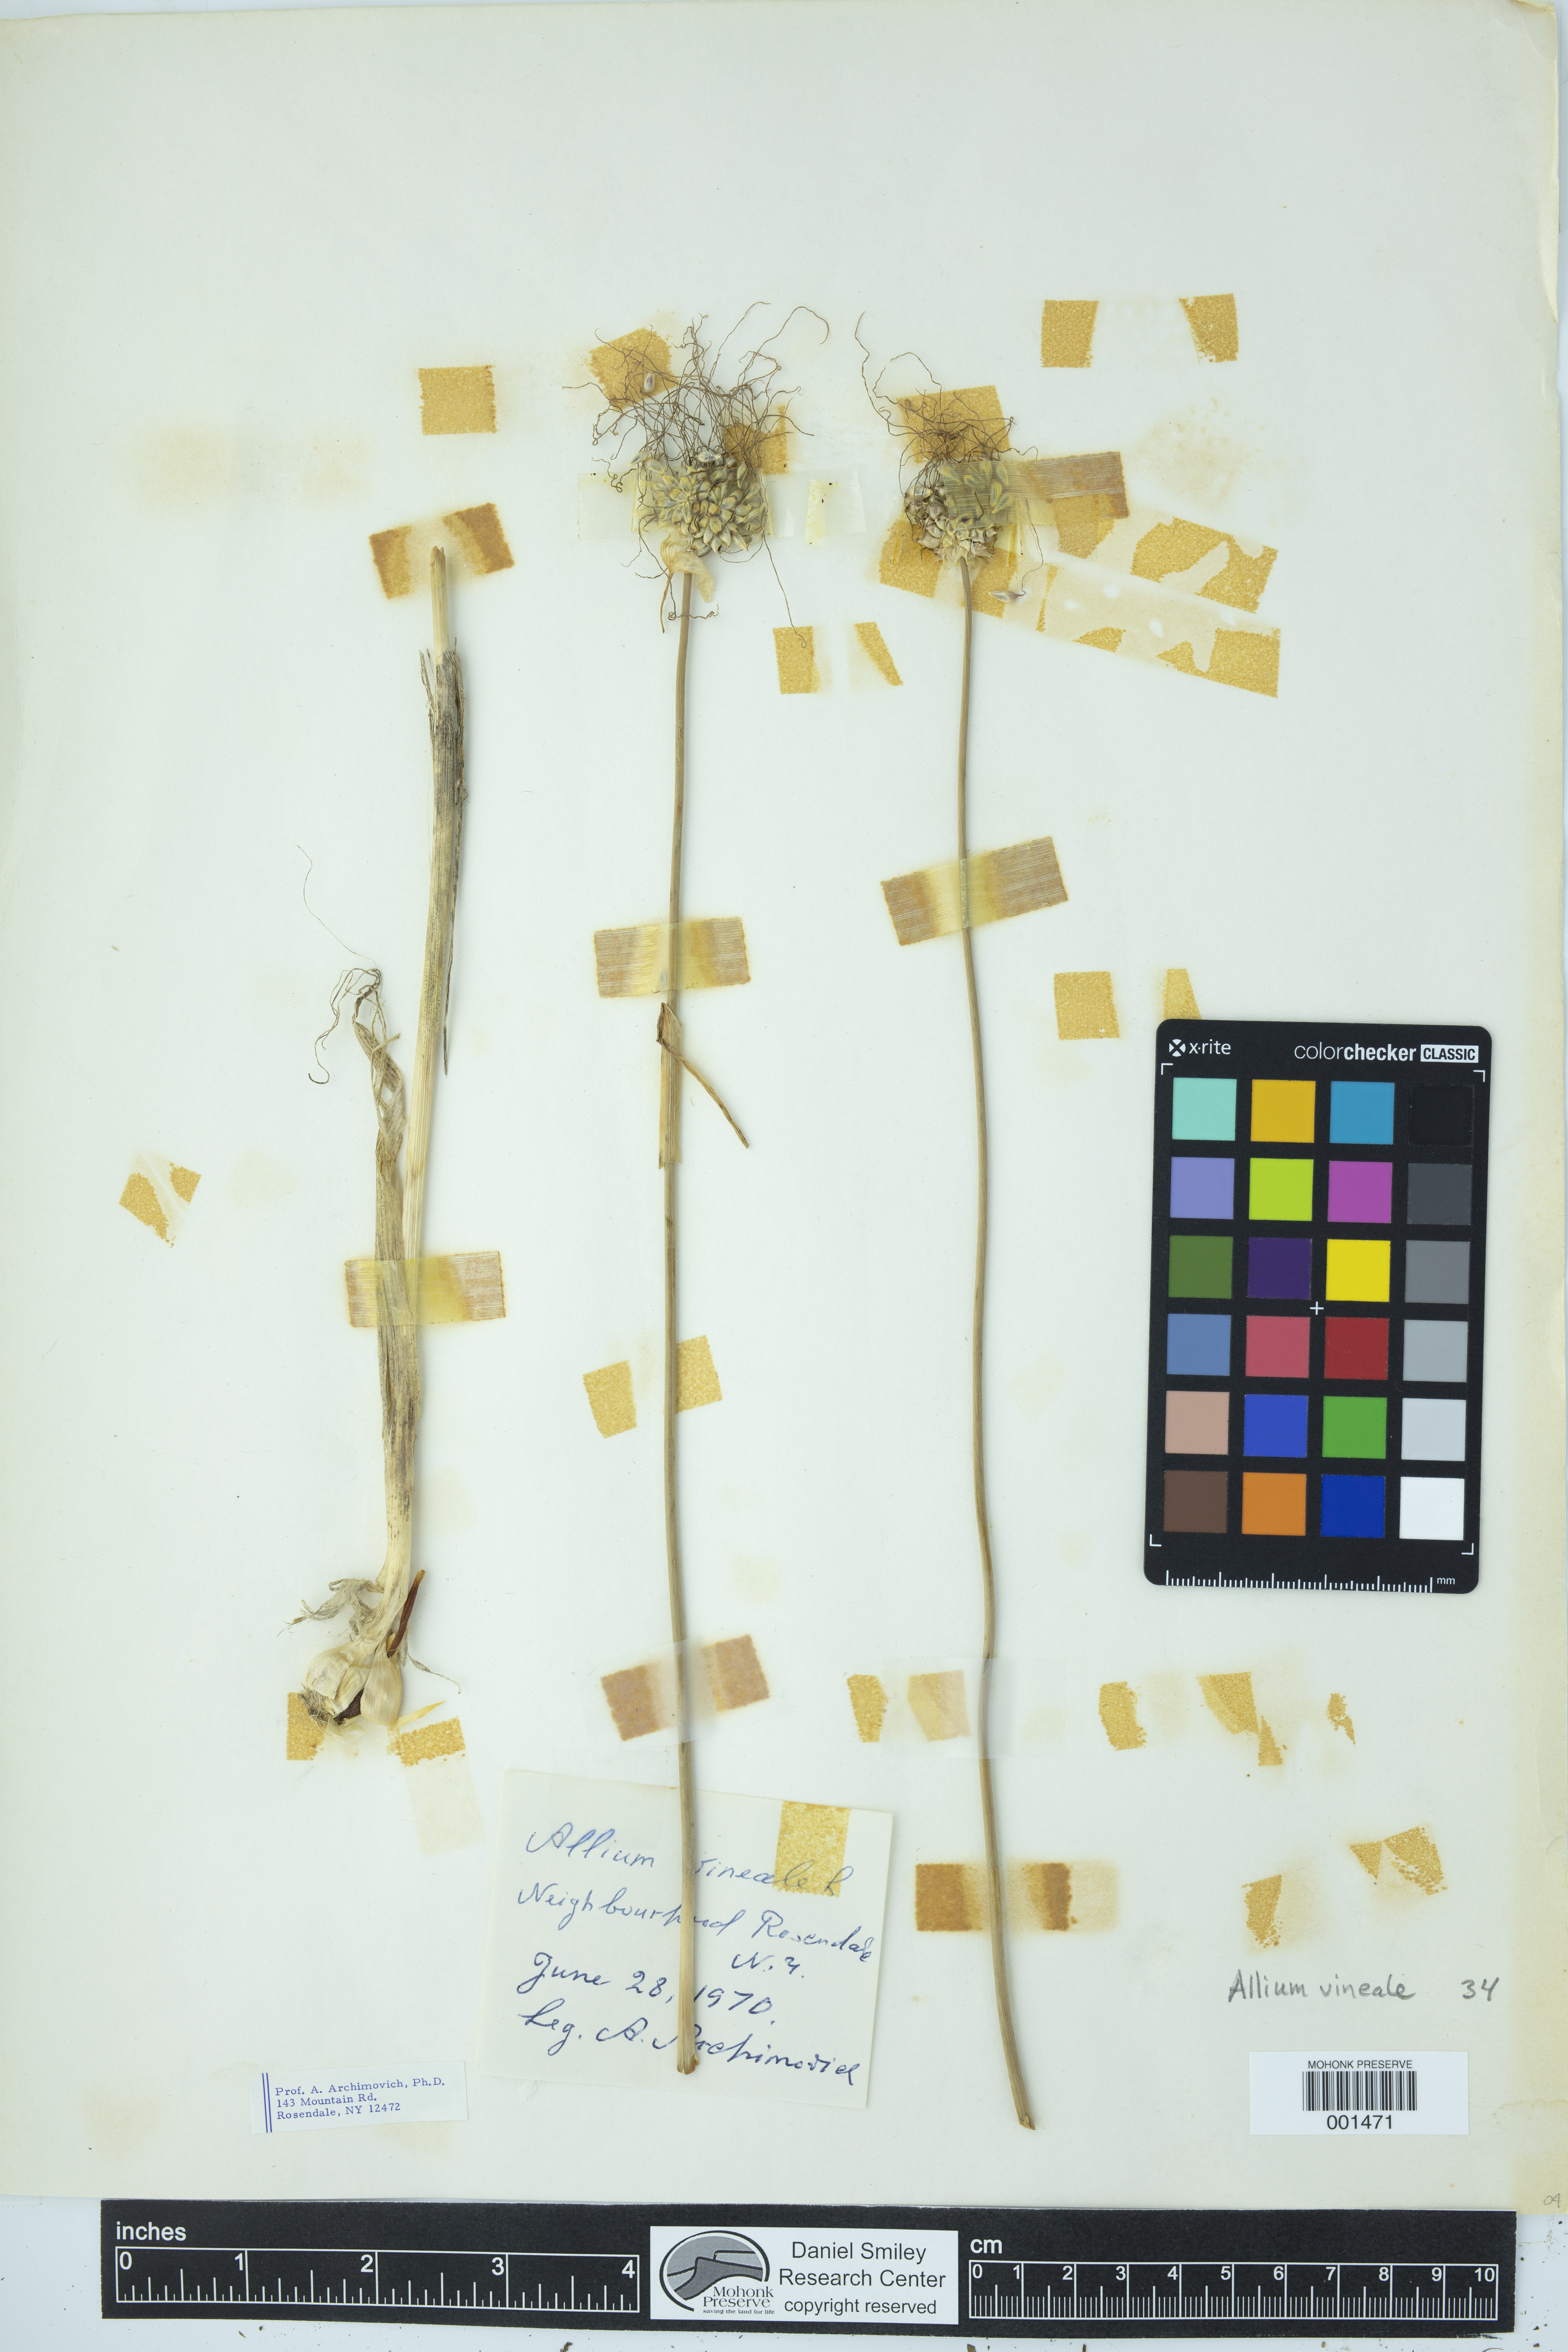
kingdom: Plantae
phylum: Tracheophyta
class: Liliopsida
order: Asparagales
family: Amaryllidaceae
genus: Allium
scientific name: Allium vineale
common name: Crow garlic
